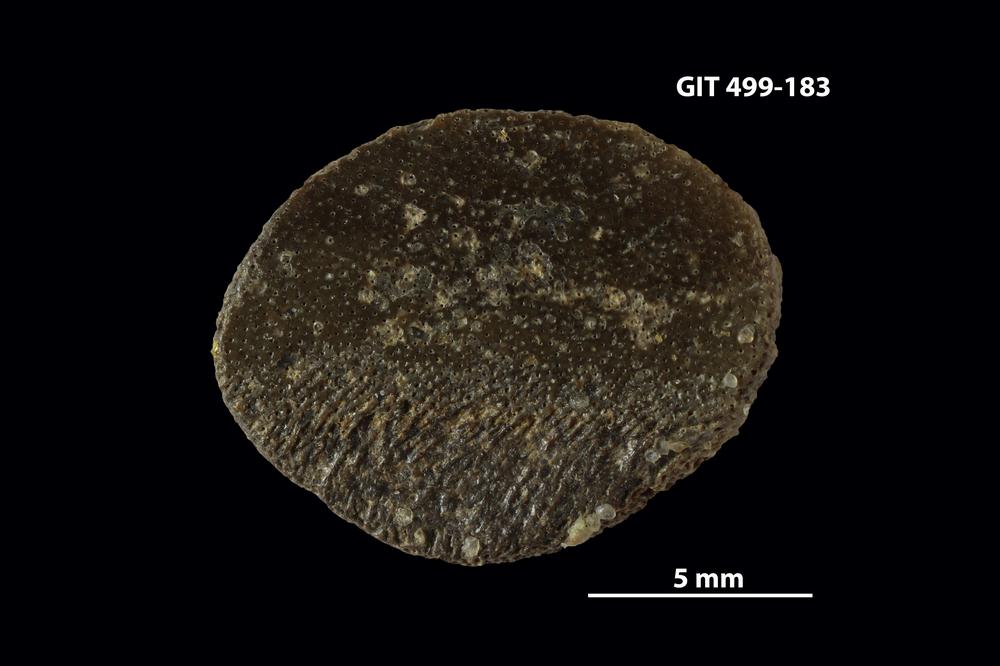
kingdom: Animalia
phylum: Chordata
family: Porolepididae
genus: Porolepis
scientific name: Porolepis
